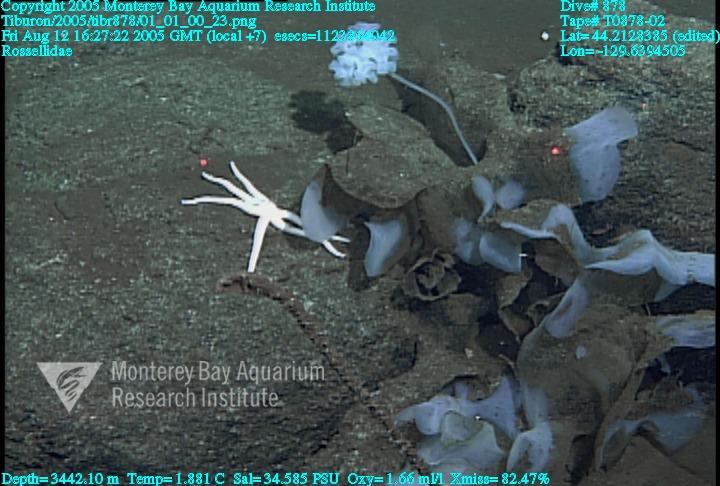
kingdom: Animalia
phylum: Porifera
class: Hexactinellida
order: Lyssacinosida
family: Rossellidae
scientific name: Rossellidae
